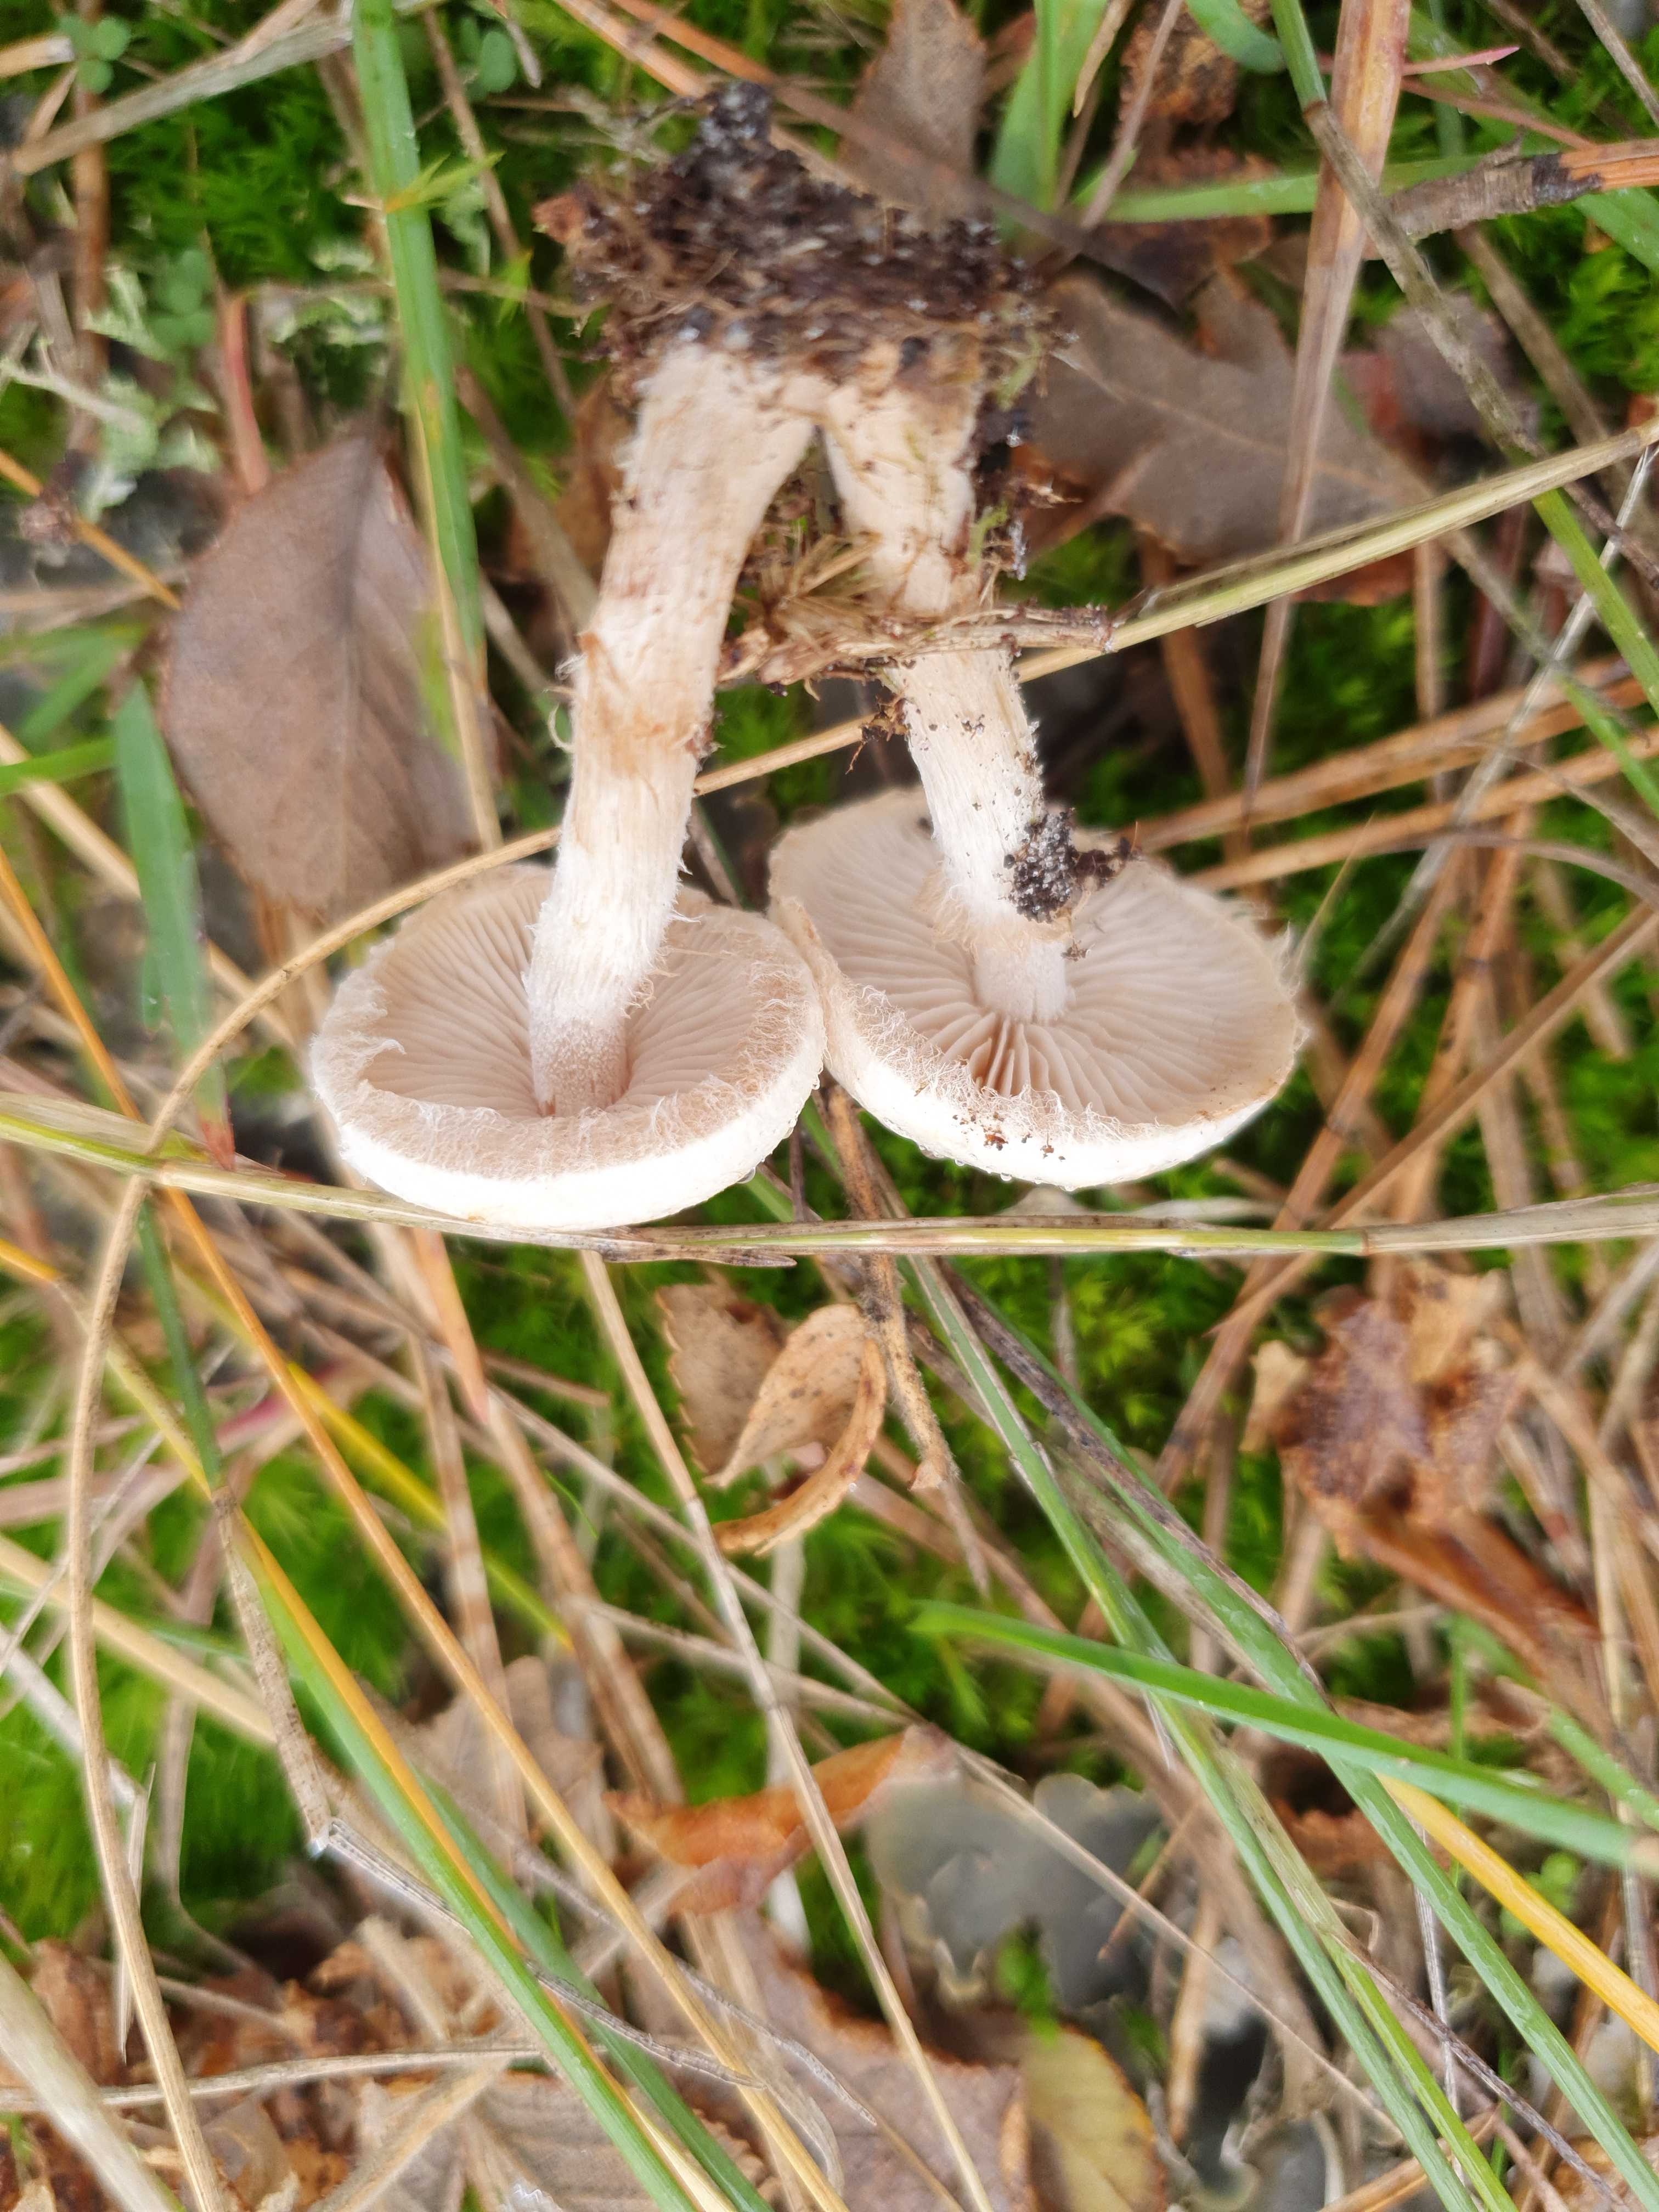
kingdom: Fungi
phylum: Basidiomycota
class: Agaricomycetes
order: Agaricales
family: Hymenogastraceae
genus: Hebeloma
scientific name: Hebeloma mesophaeum
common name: lerbrun tåreblad
